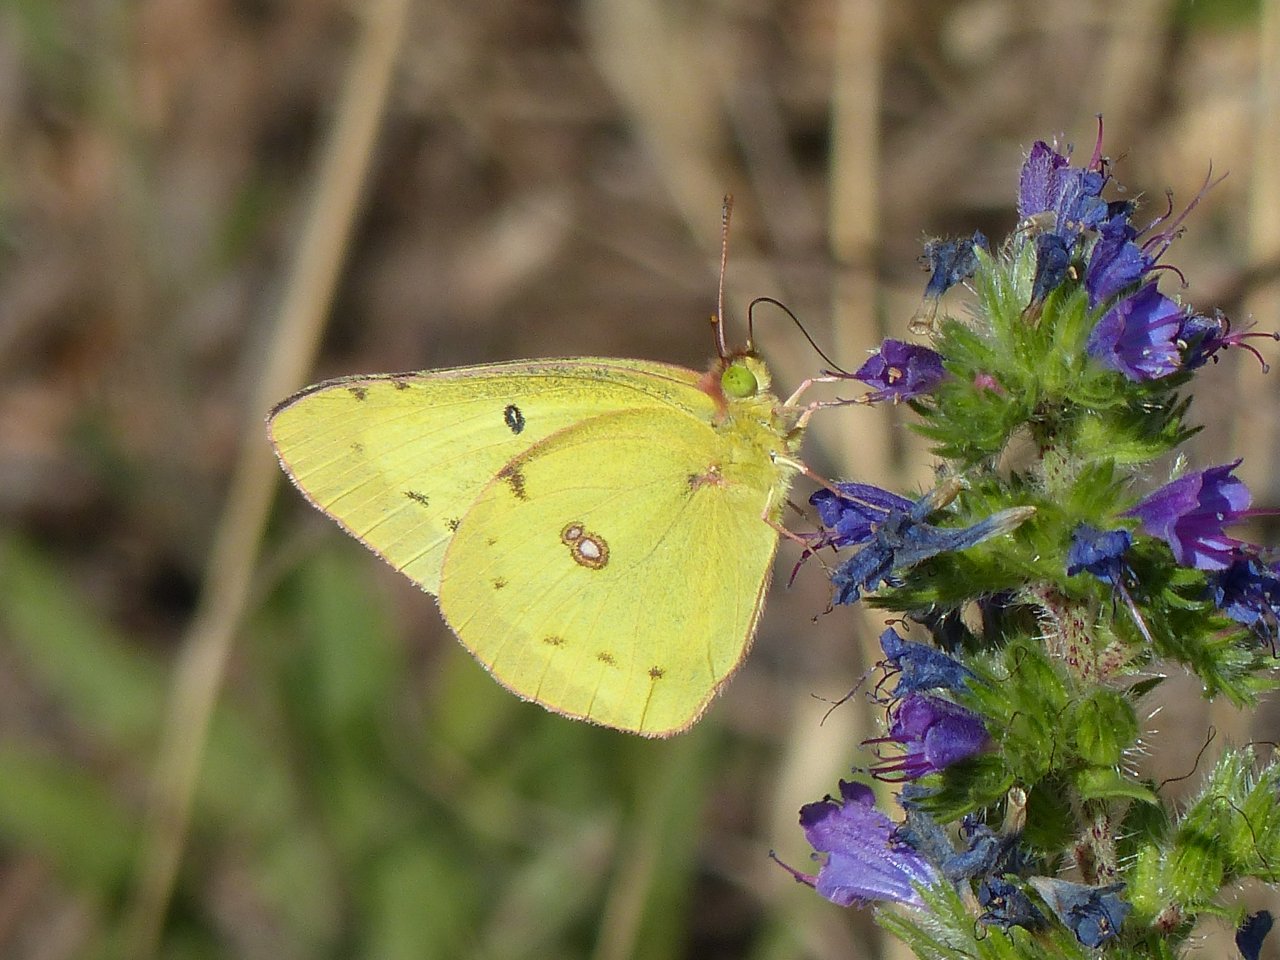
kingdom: Animalia
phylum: Arthropoda
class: Insecta
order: Lepidoptera
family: Pieridae
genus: Colias
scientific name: Colias philodice
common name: Clouded Sulphur
